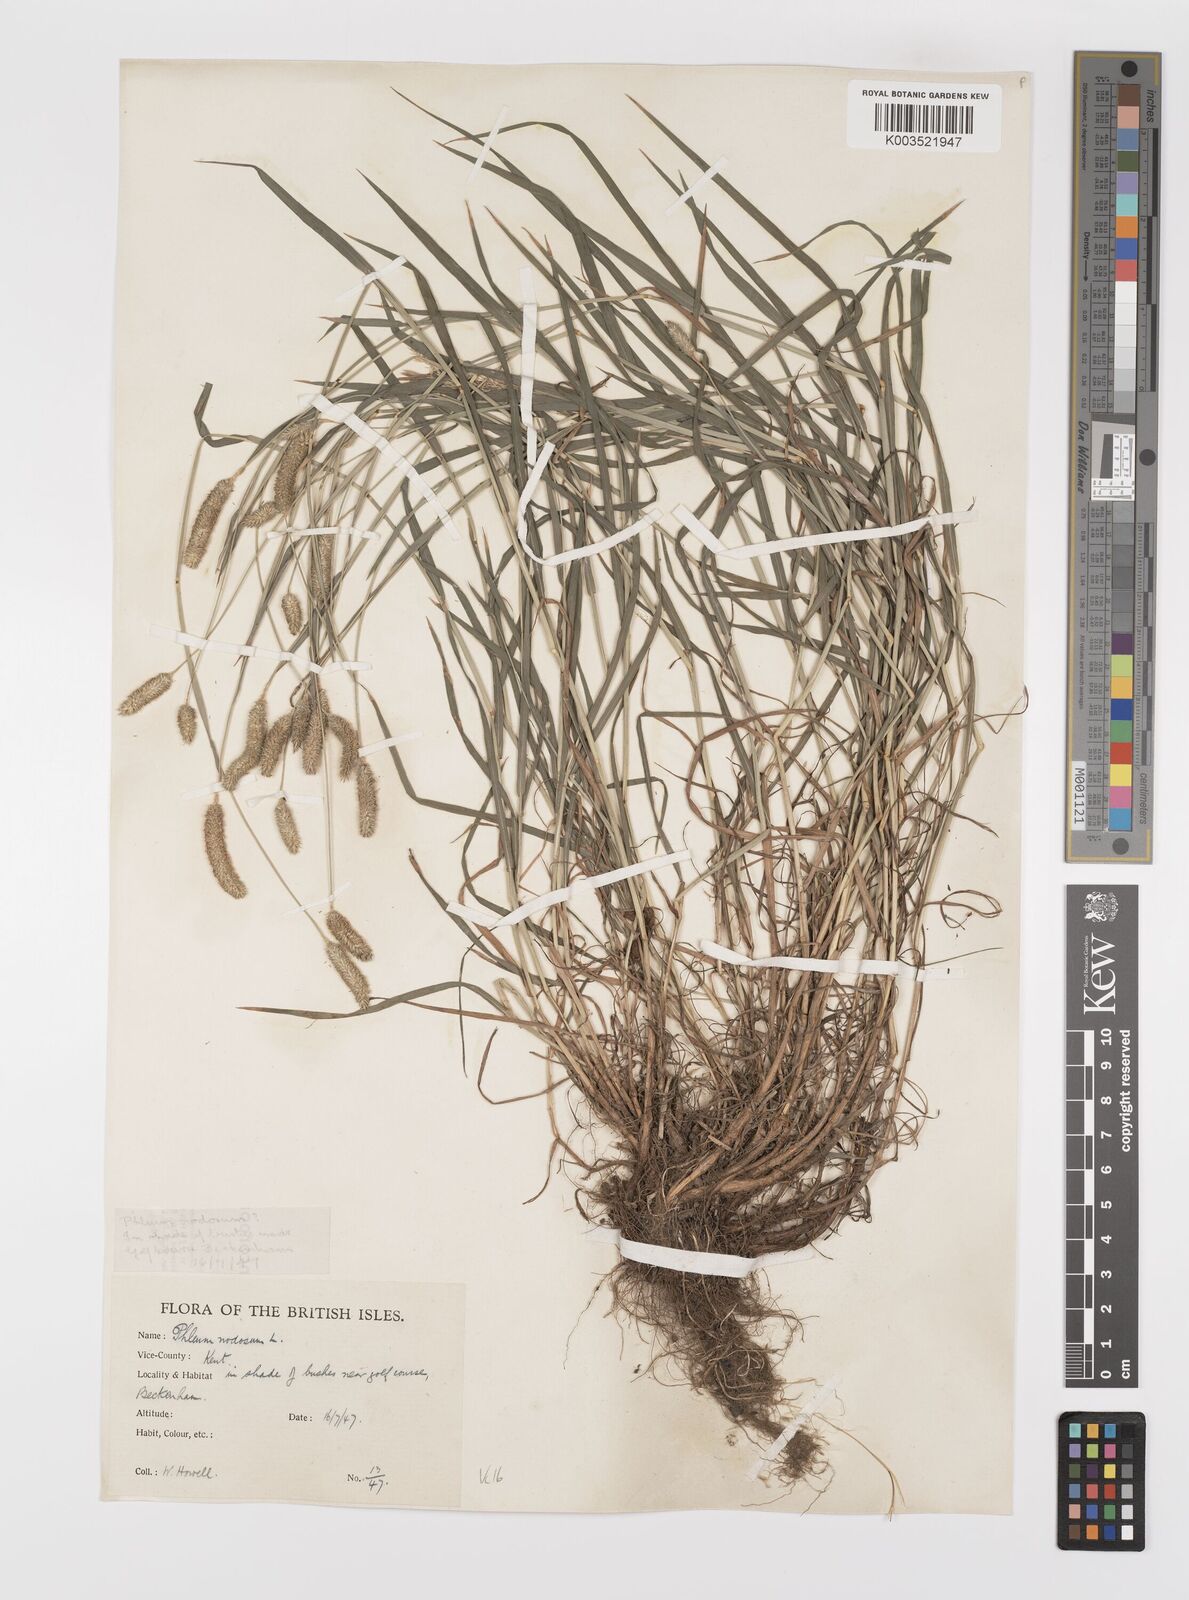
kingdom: Plantae
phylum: Tracheophyta
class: Liliopsida
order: Poales
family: Poaceae
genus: Phleum
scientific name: Phleum bertolonii
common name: Smaller cat's-tail
